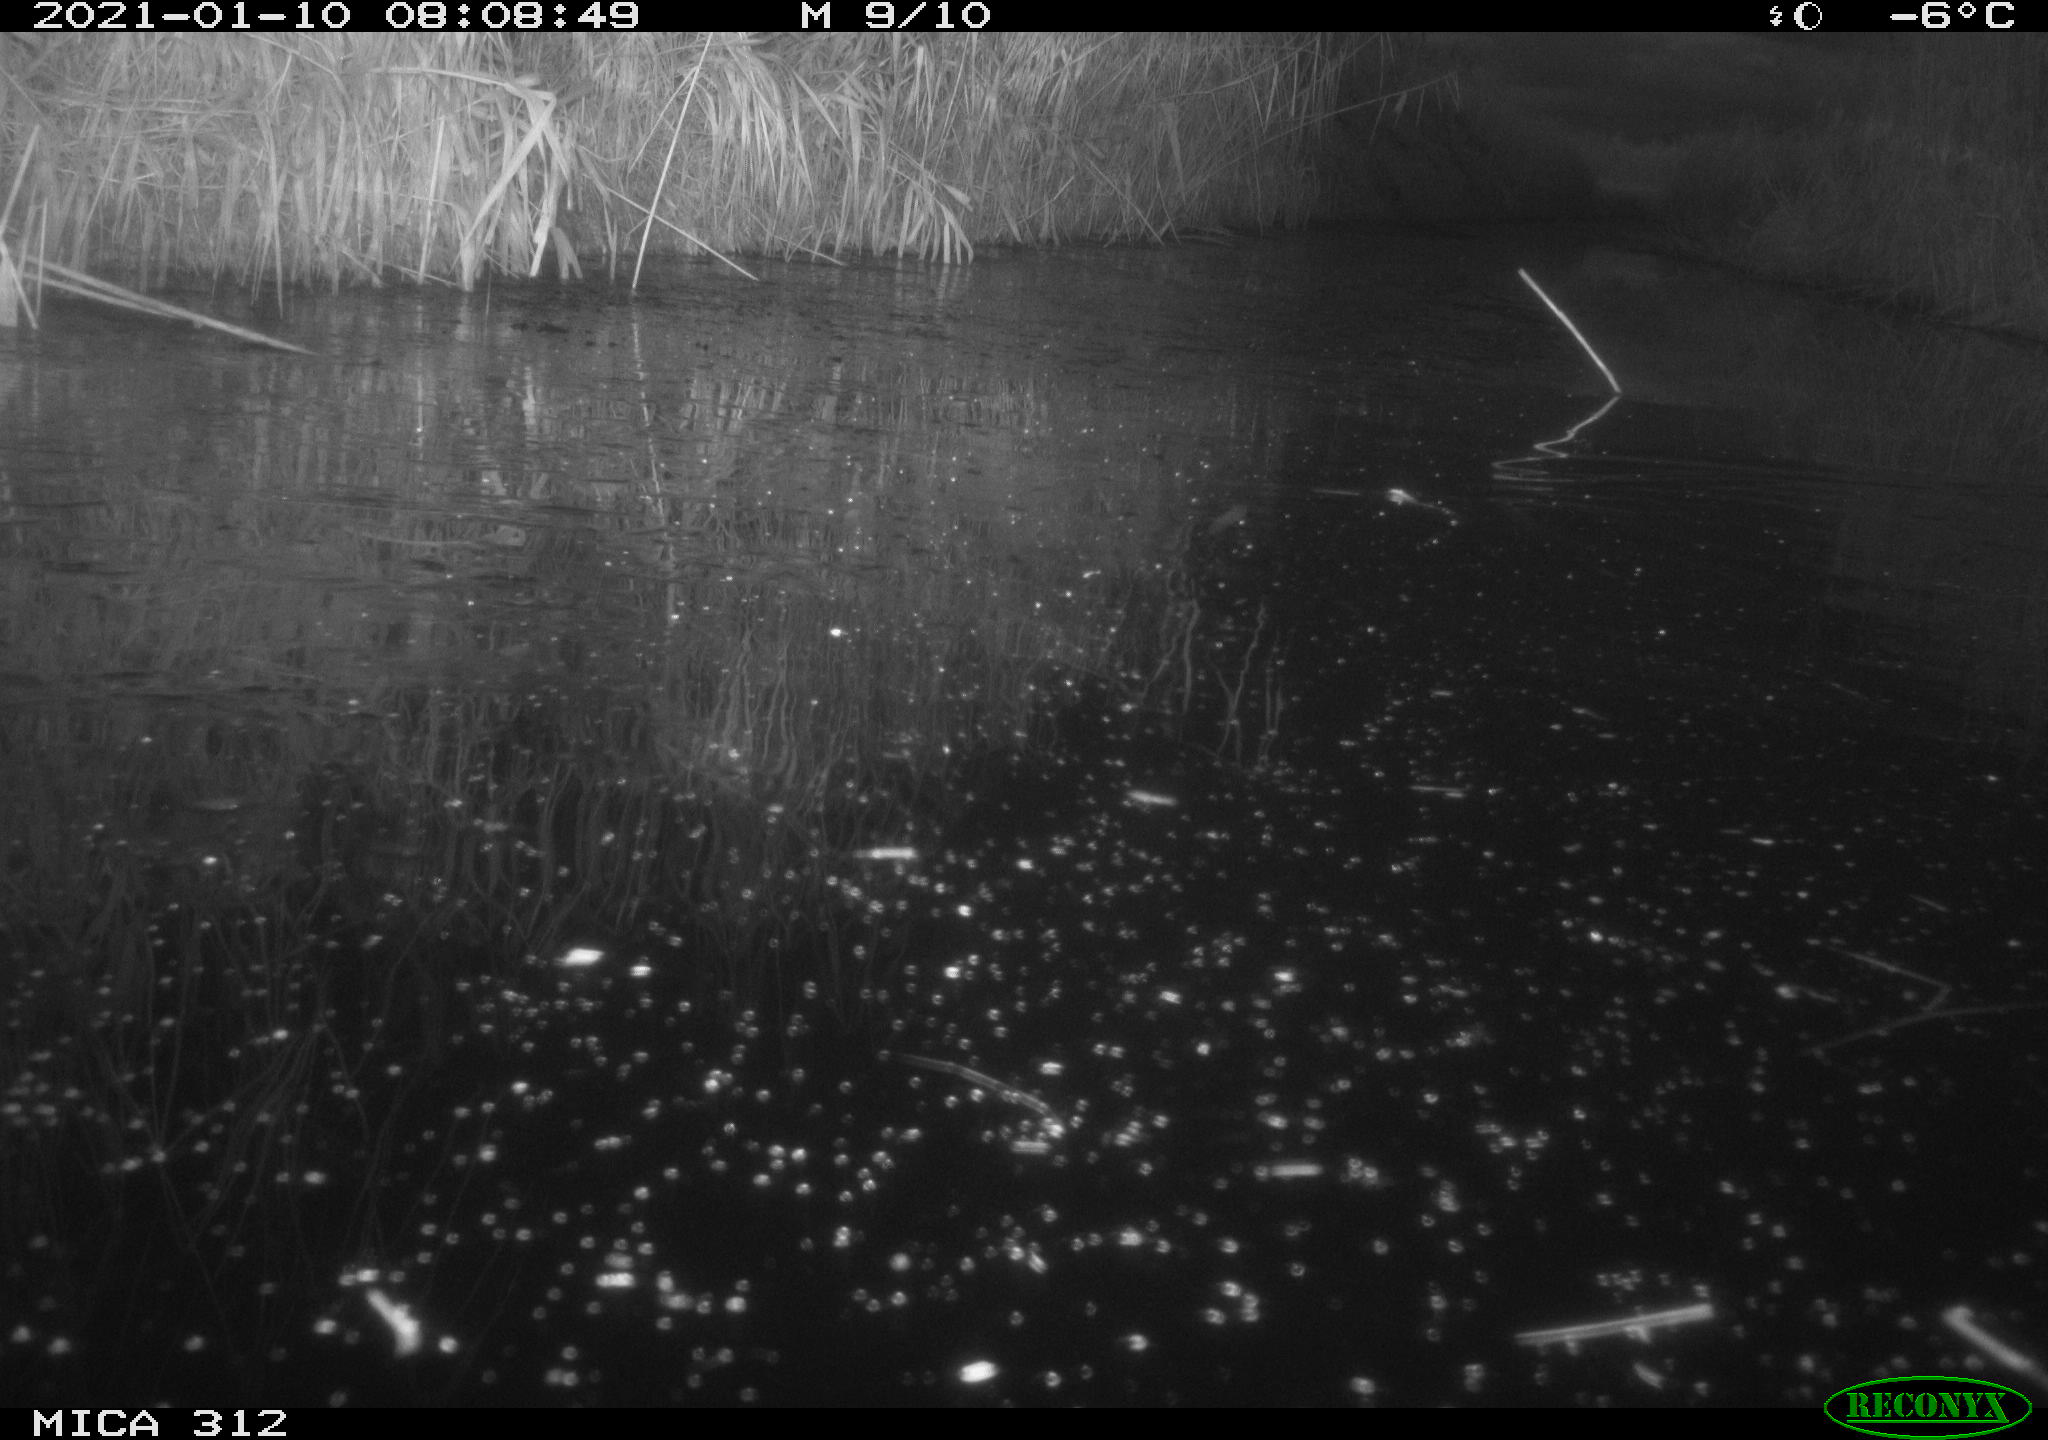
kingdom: Animalia
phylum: Chordata
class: Mammalia
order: Rodentia
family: Muridae
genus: Rattus
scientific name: Rattus norvegicus
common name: Brown rat
